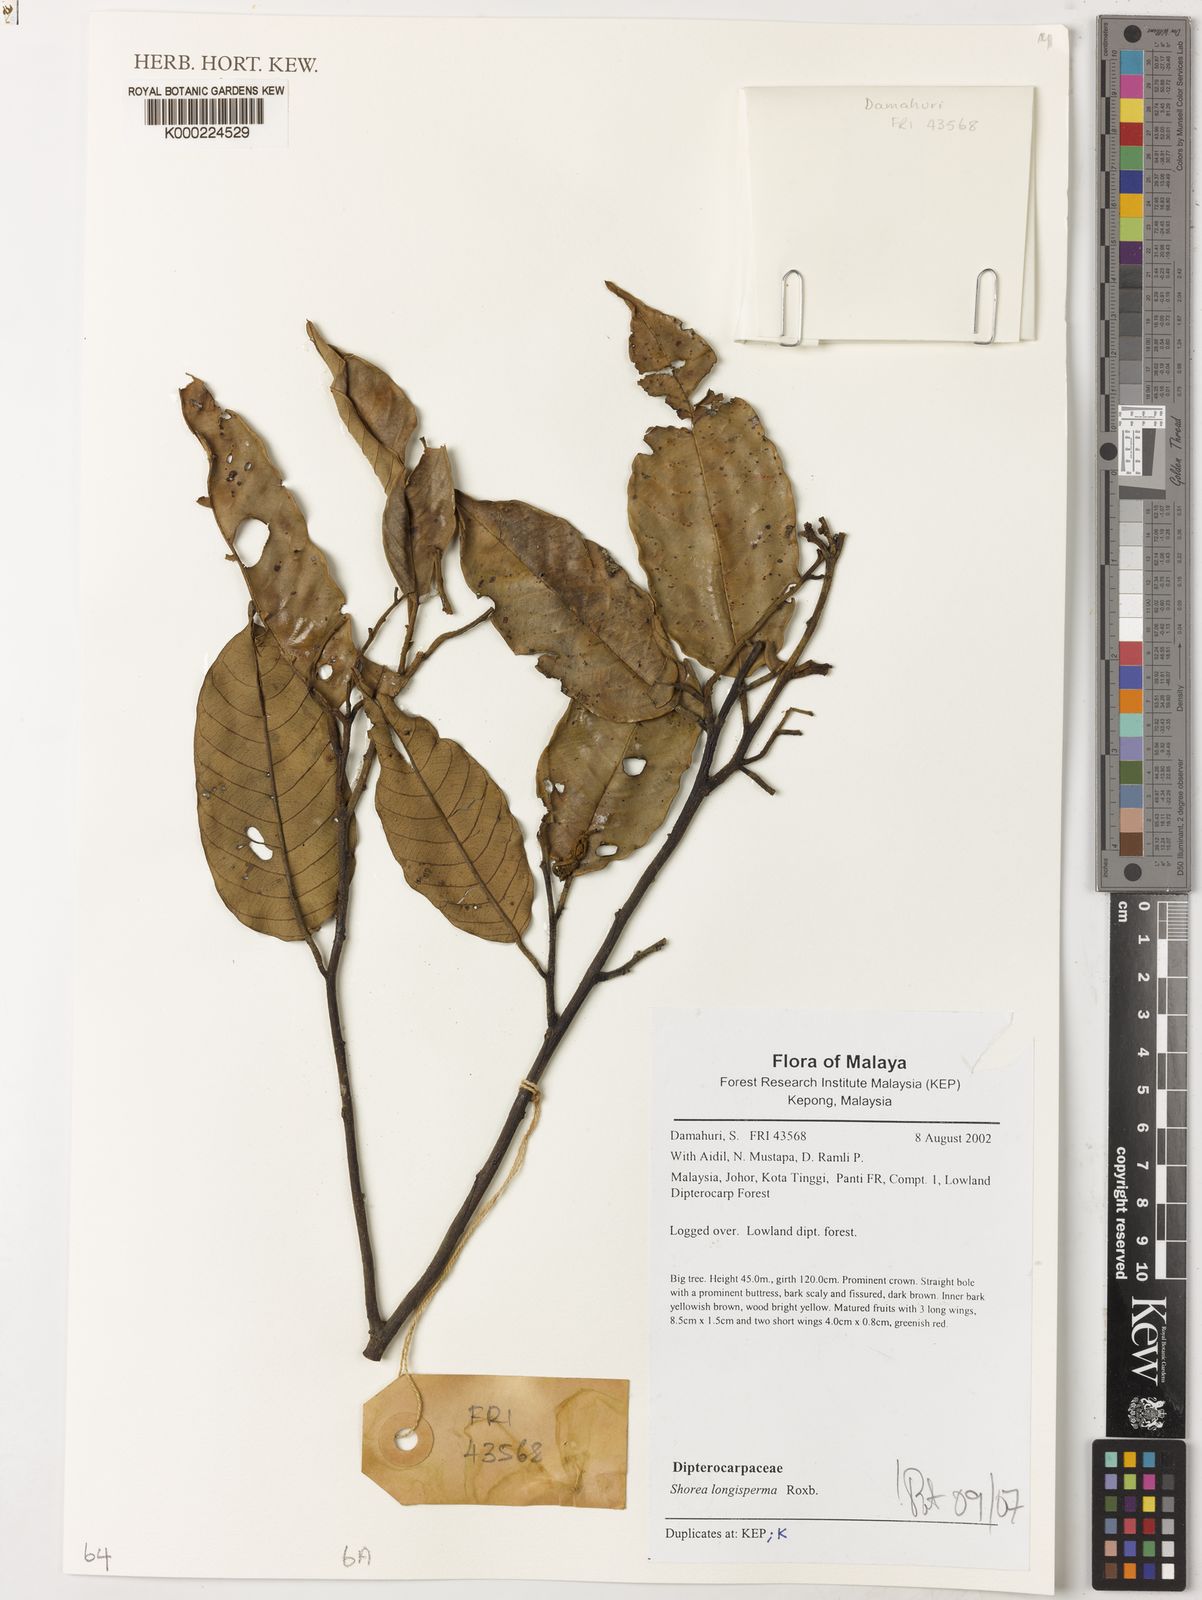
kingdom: Plantae
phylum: Tracheophyta
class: Magnoliopsida
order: Malvales
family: Dipterocarpaceae
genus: Shorea
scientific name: Shorea longisperma
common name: Yellow meranti
